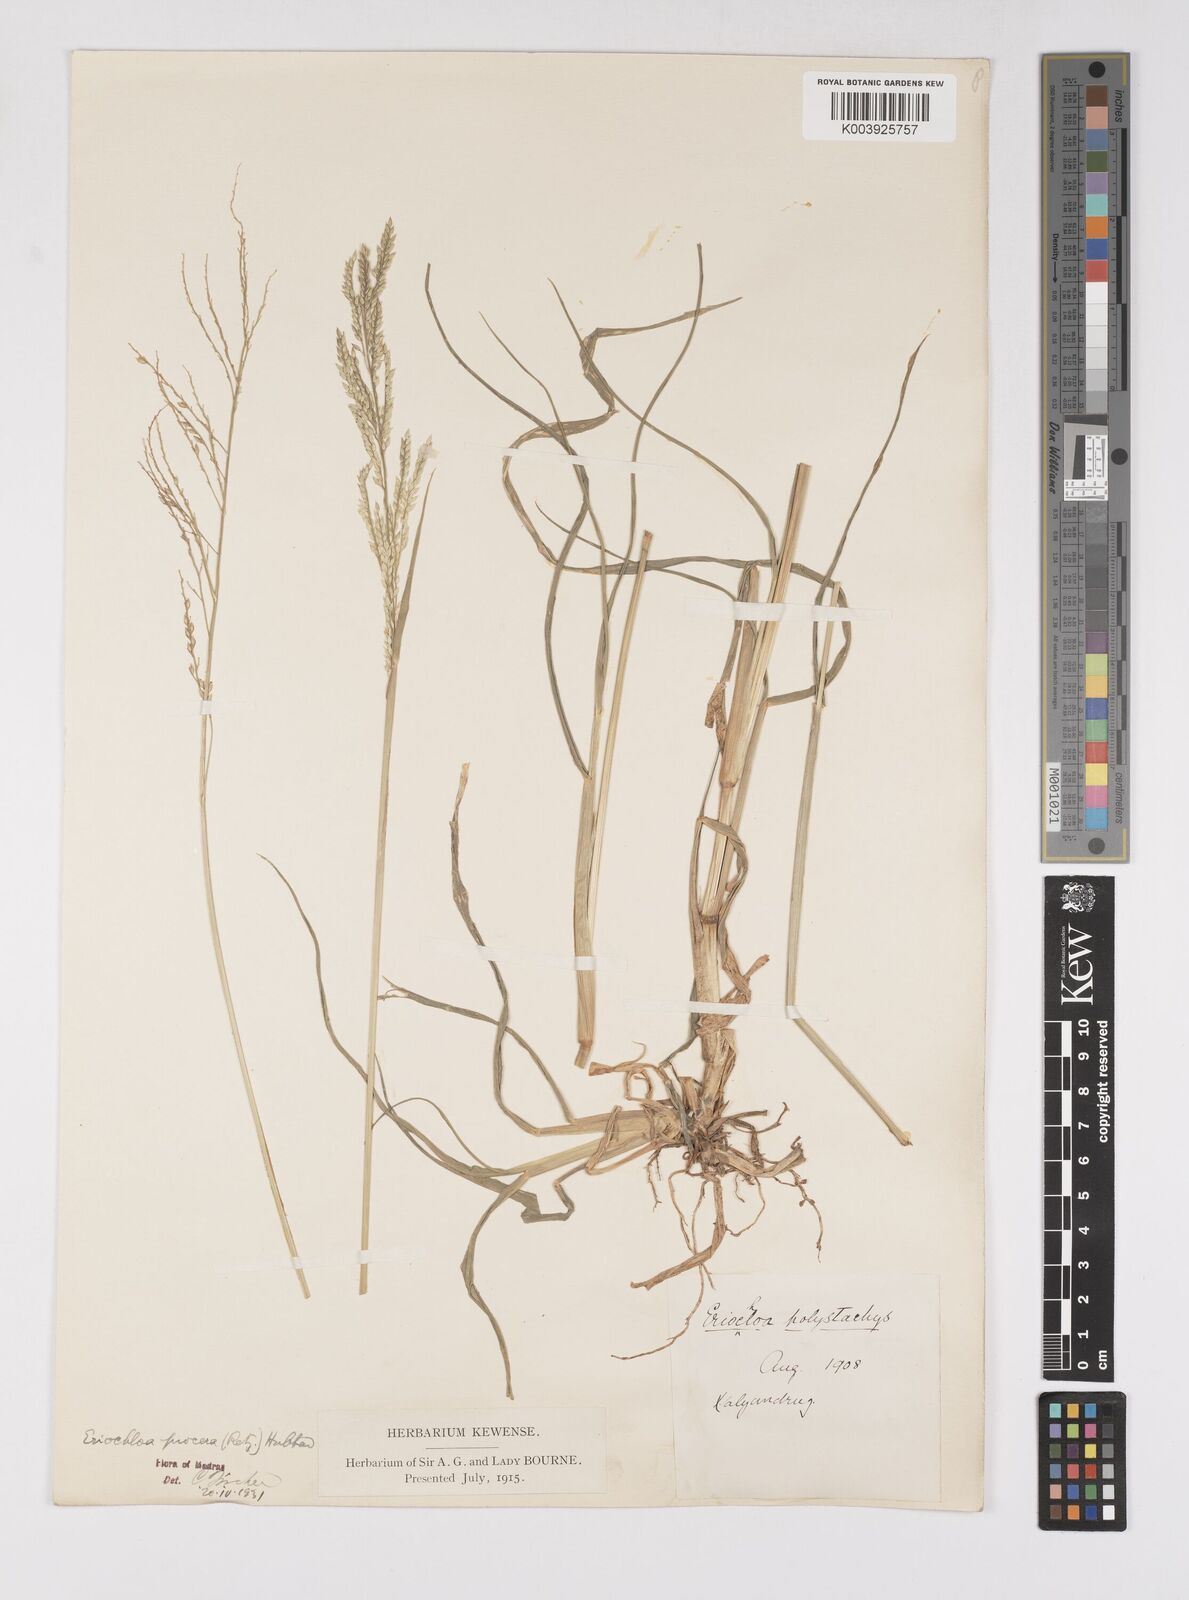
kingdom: Plantae
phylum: Tracheophyta
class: Liliopsida
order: Poales
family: Poaceae
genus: Eriochloa
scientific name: Eriochloa procera
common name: Spring grass
